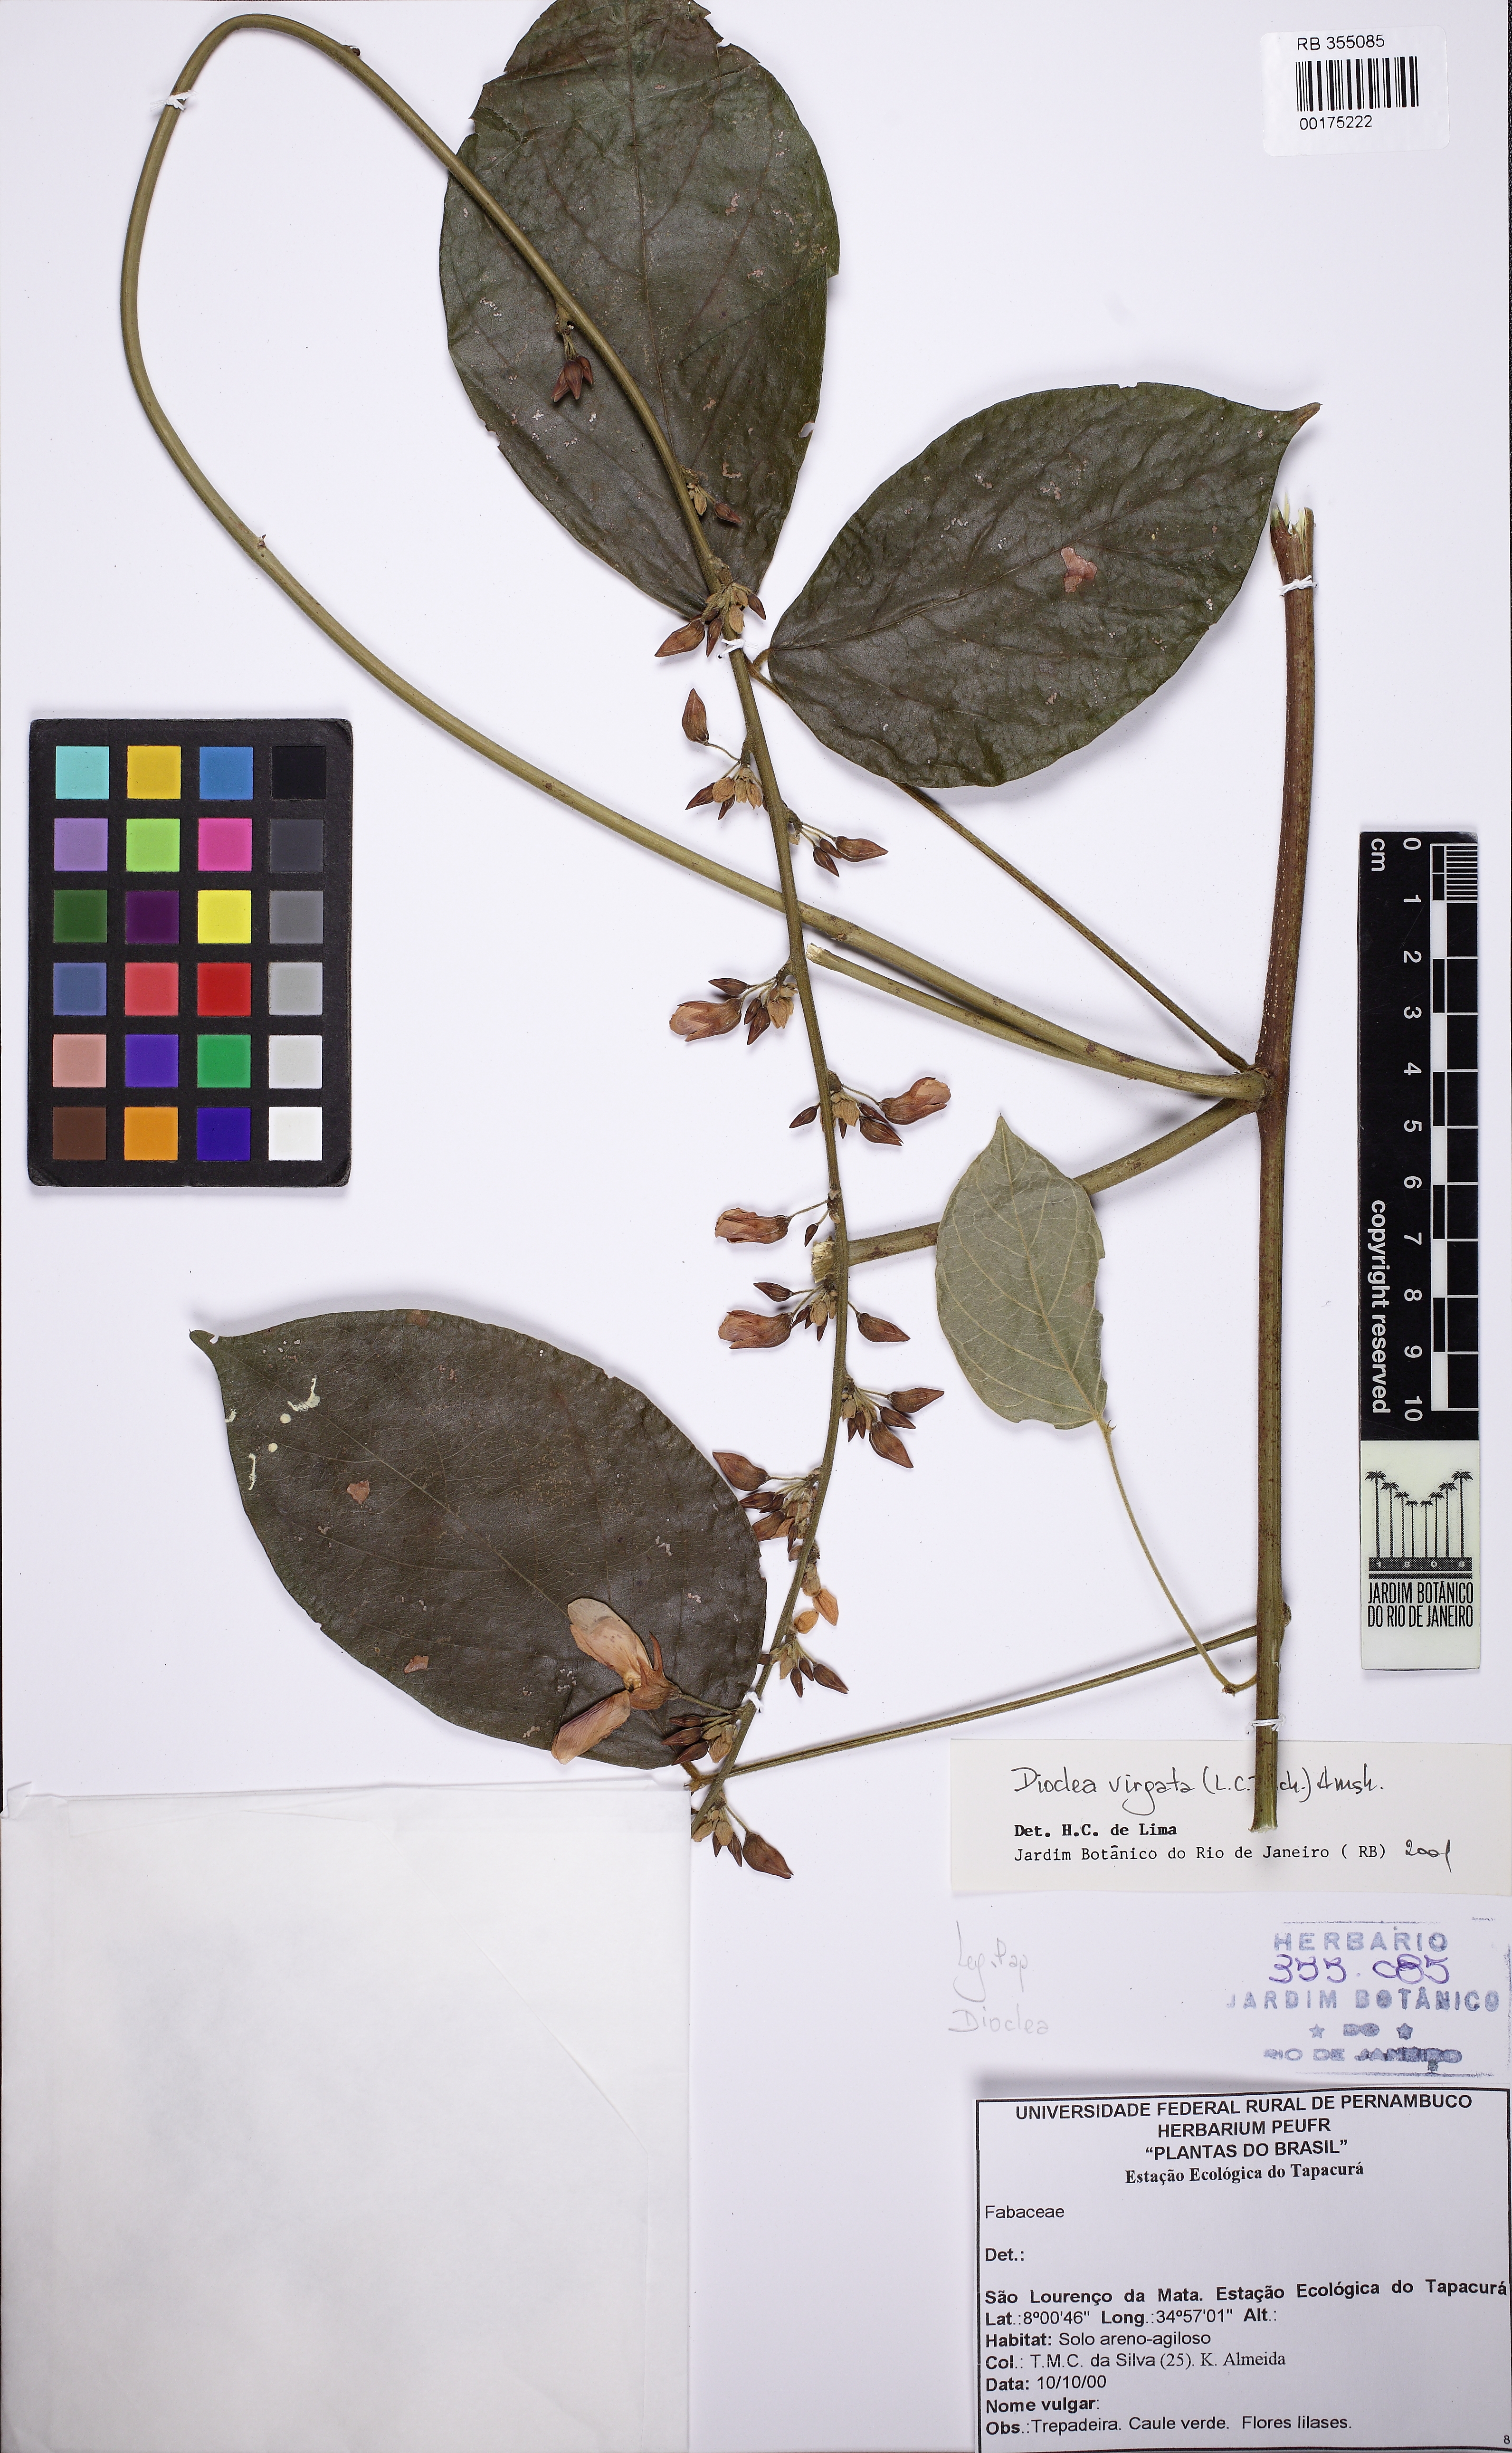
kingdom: Plantae
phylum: Tracheophyta
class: Magnoliopsida
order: Fabales
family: Fabaceae
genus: Dioclea
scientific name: Dioclea virgata
